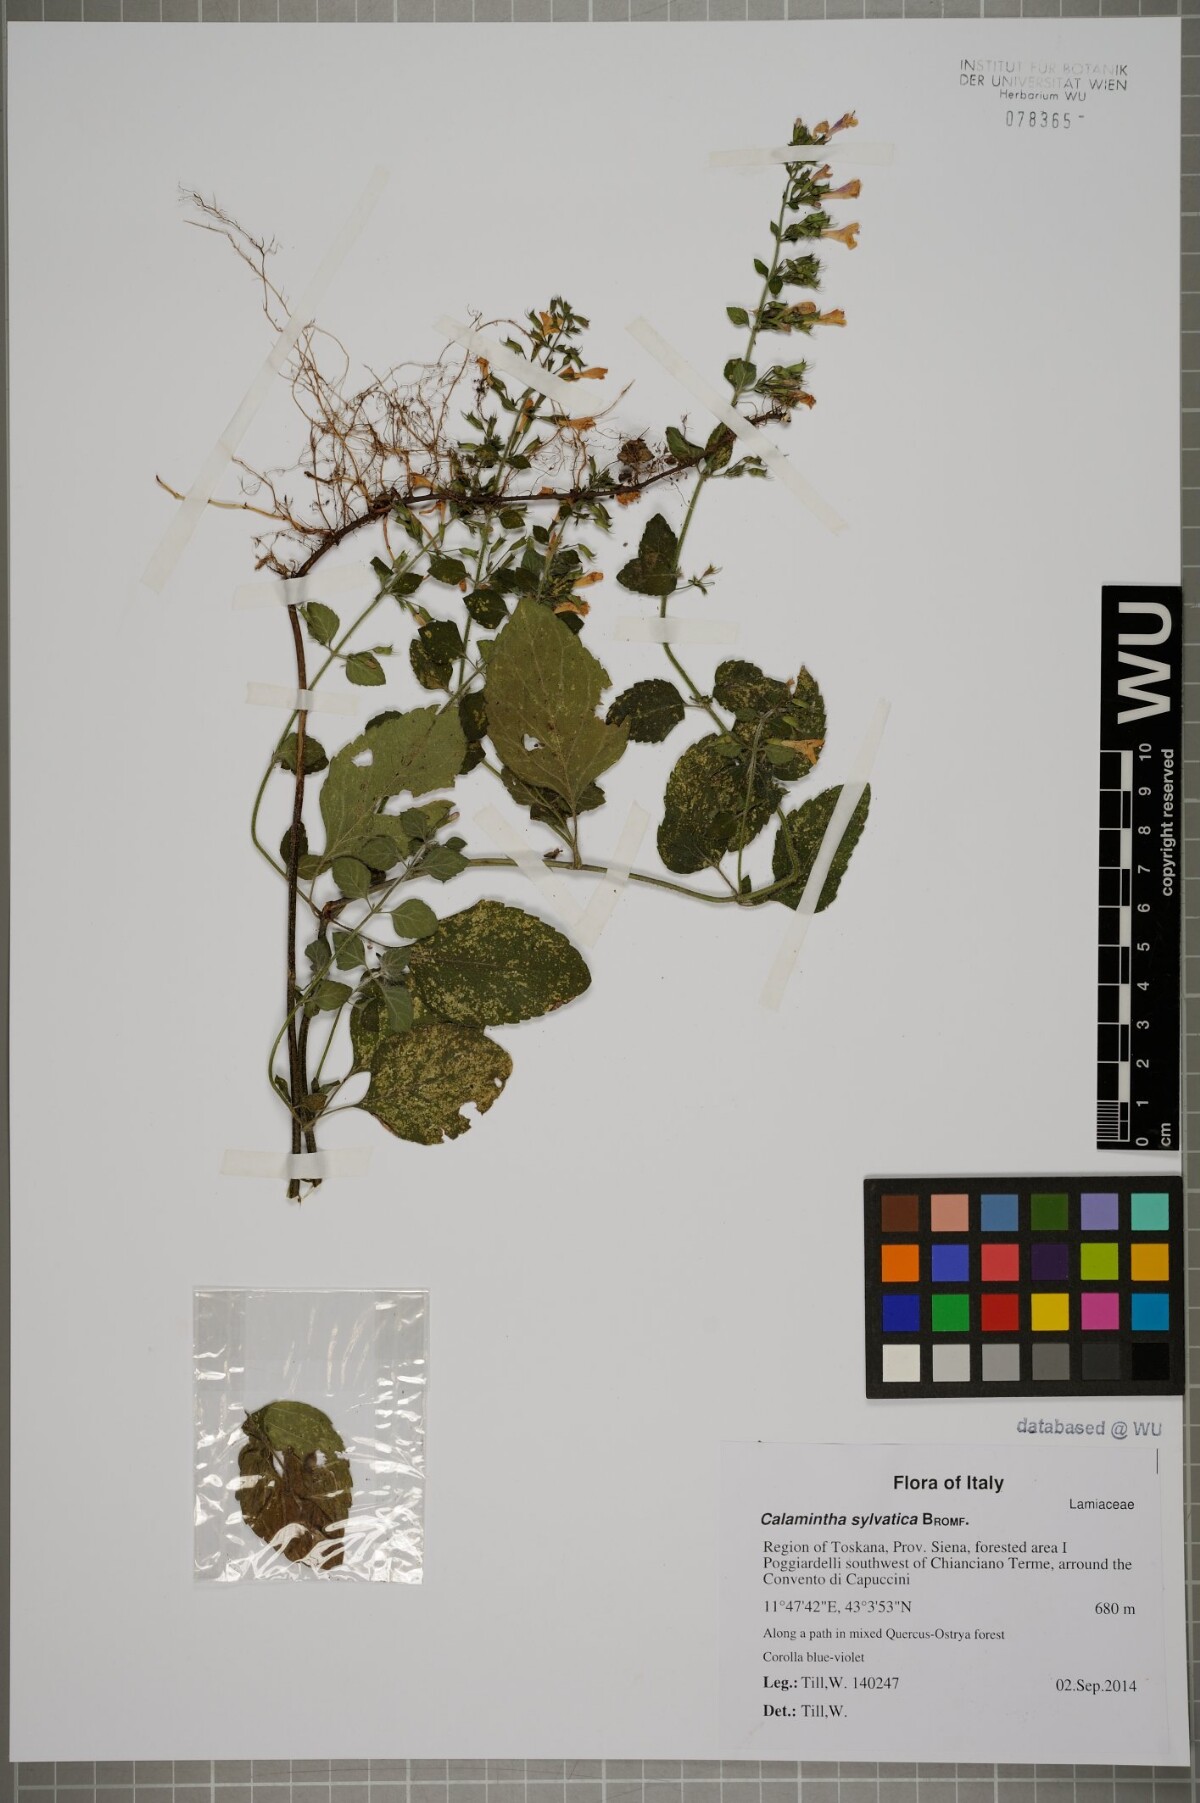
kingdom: Plantae
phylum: Tracheophyta
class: Magnoliopsida
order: Lamiales
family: Lamiaceae
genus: Clinopodium
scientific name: Clinopodium menthifolium
